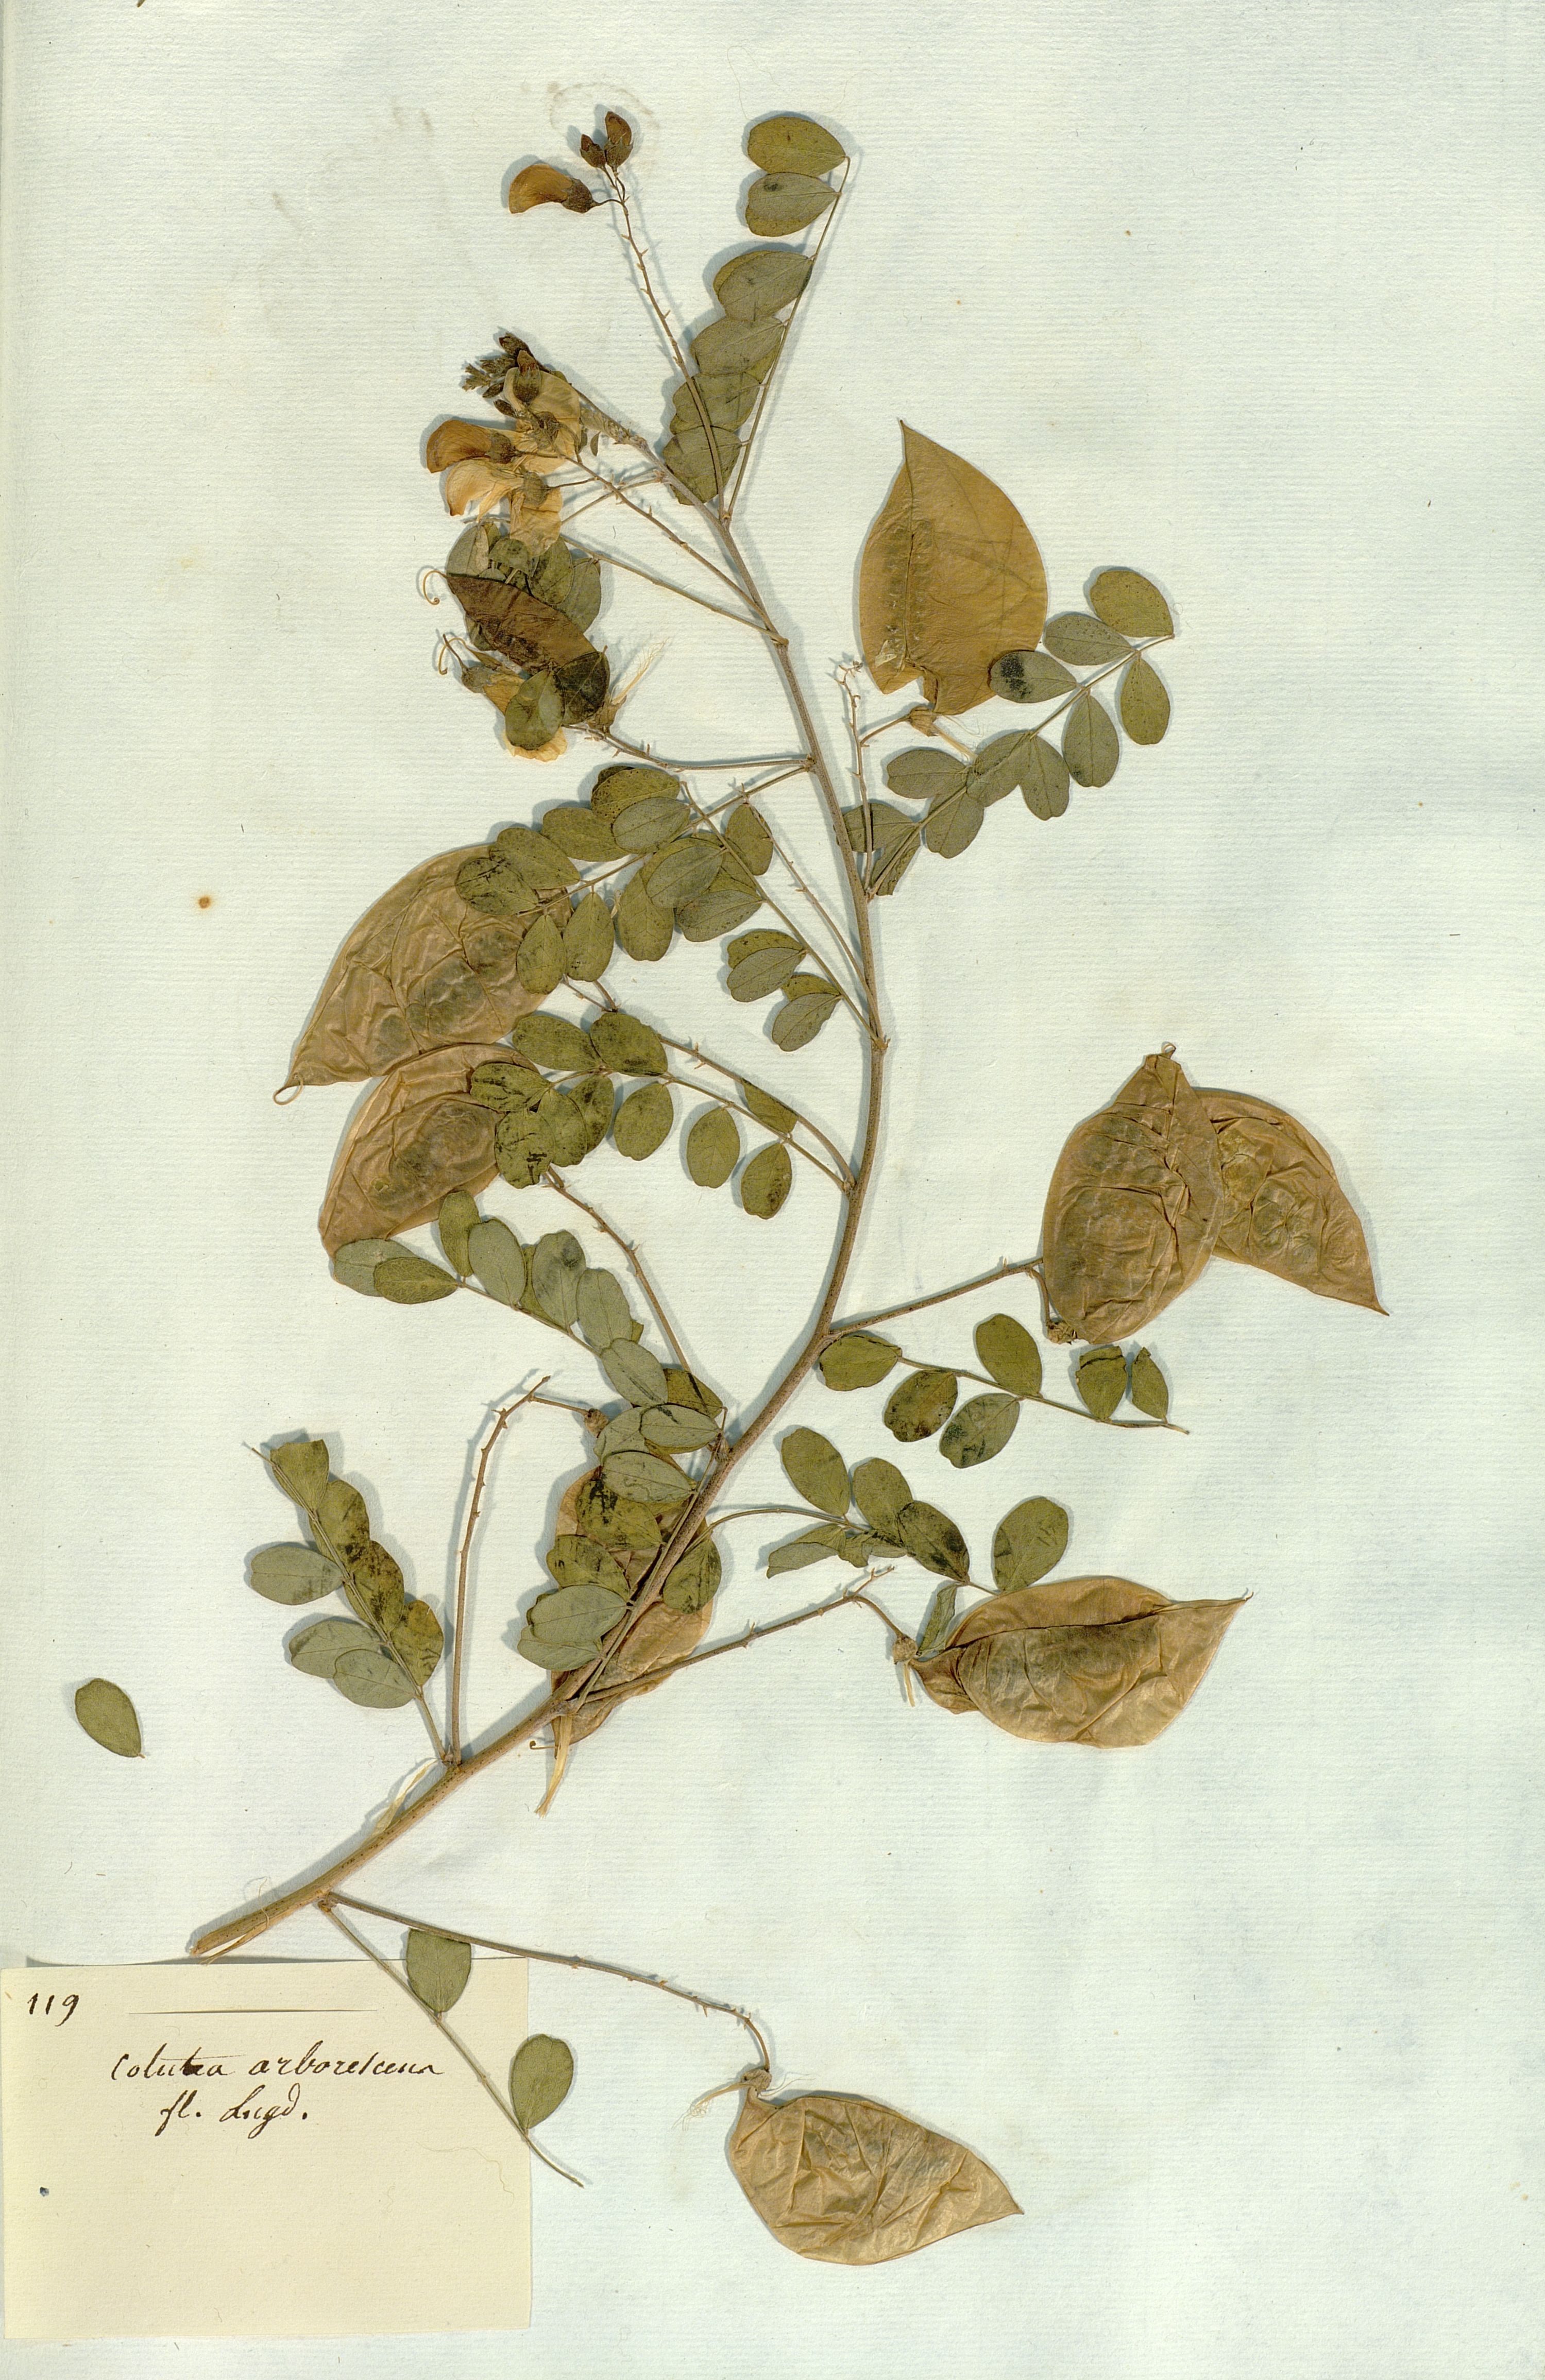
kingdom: Plantae
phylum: Tracheophyta
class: Magnoliopsida
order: Fabales
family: Fabaceae
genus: Colutea
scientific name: Colutea arborescens
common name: Bladder-senna
